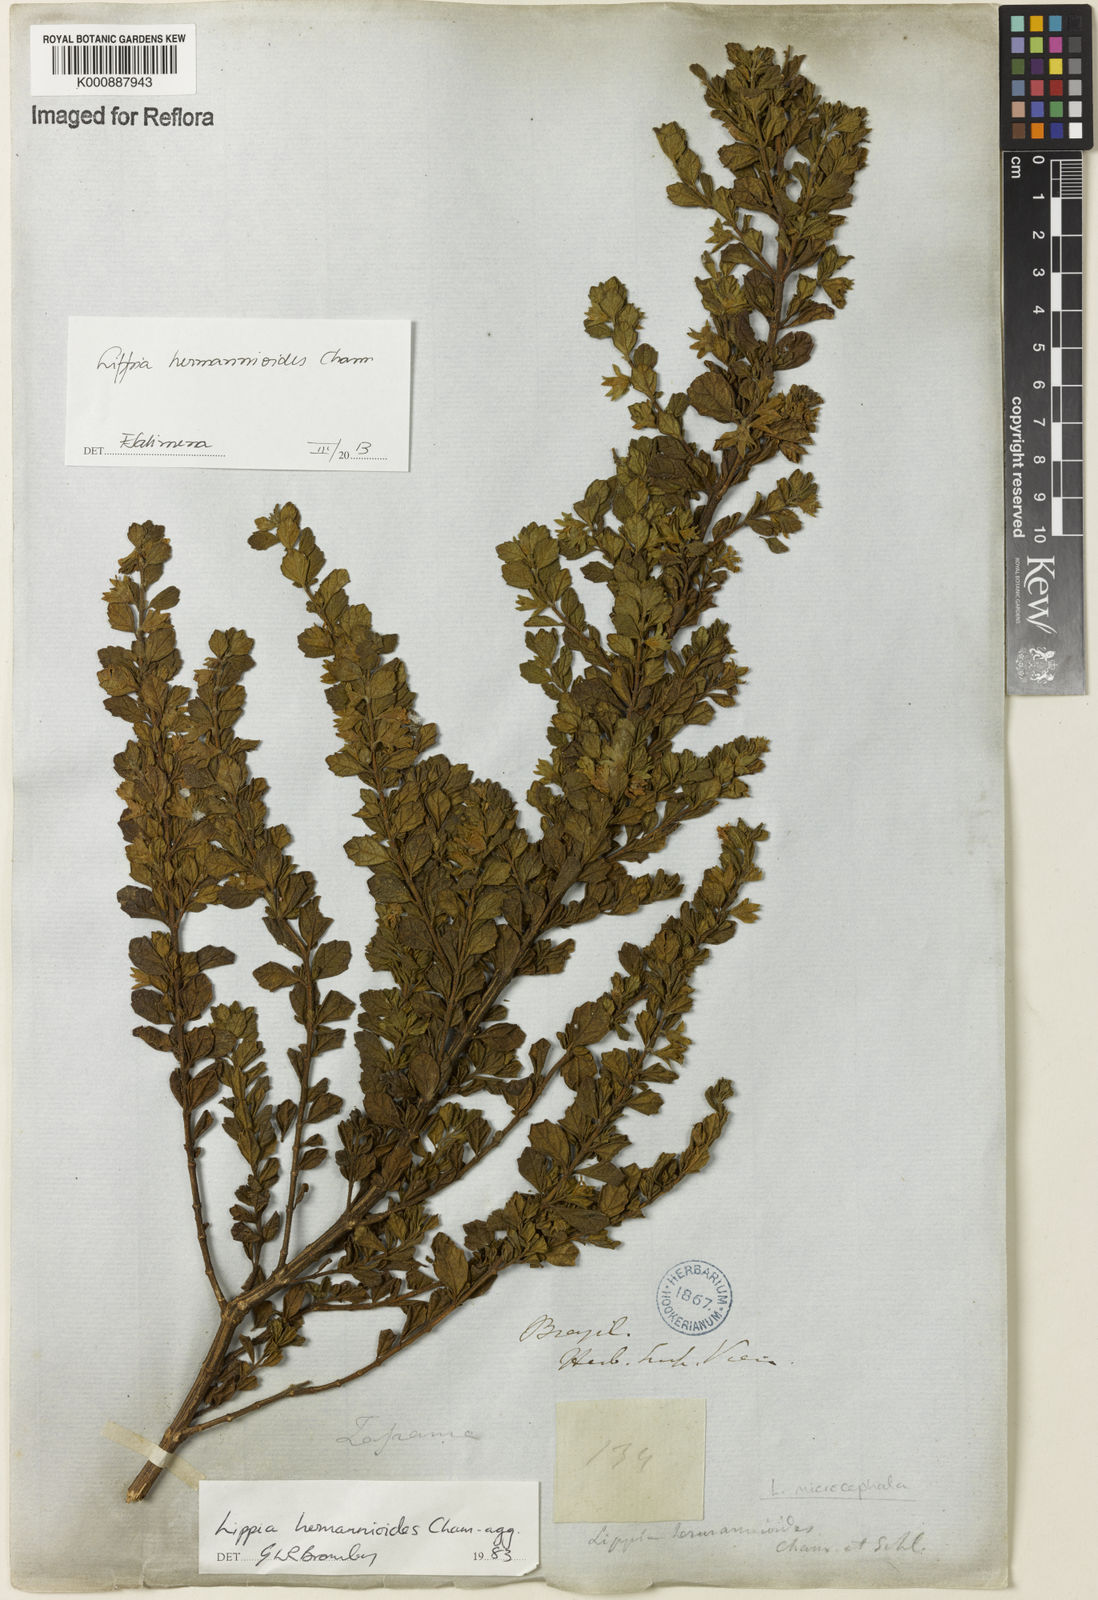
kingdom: Plantae
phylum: Tracheophyta
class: Magnoliopsida
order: Lamiales
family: Verbenaceae
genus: Lippia
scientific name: Lippia hermannioides
